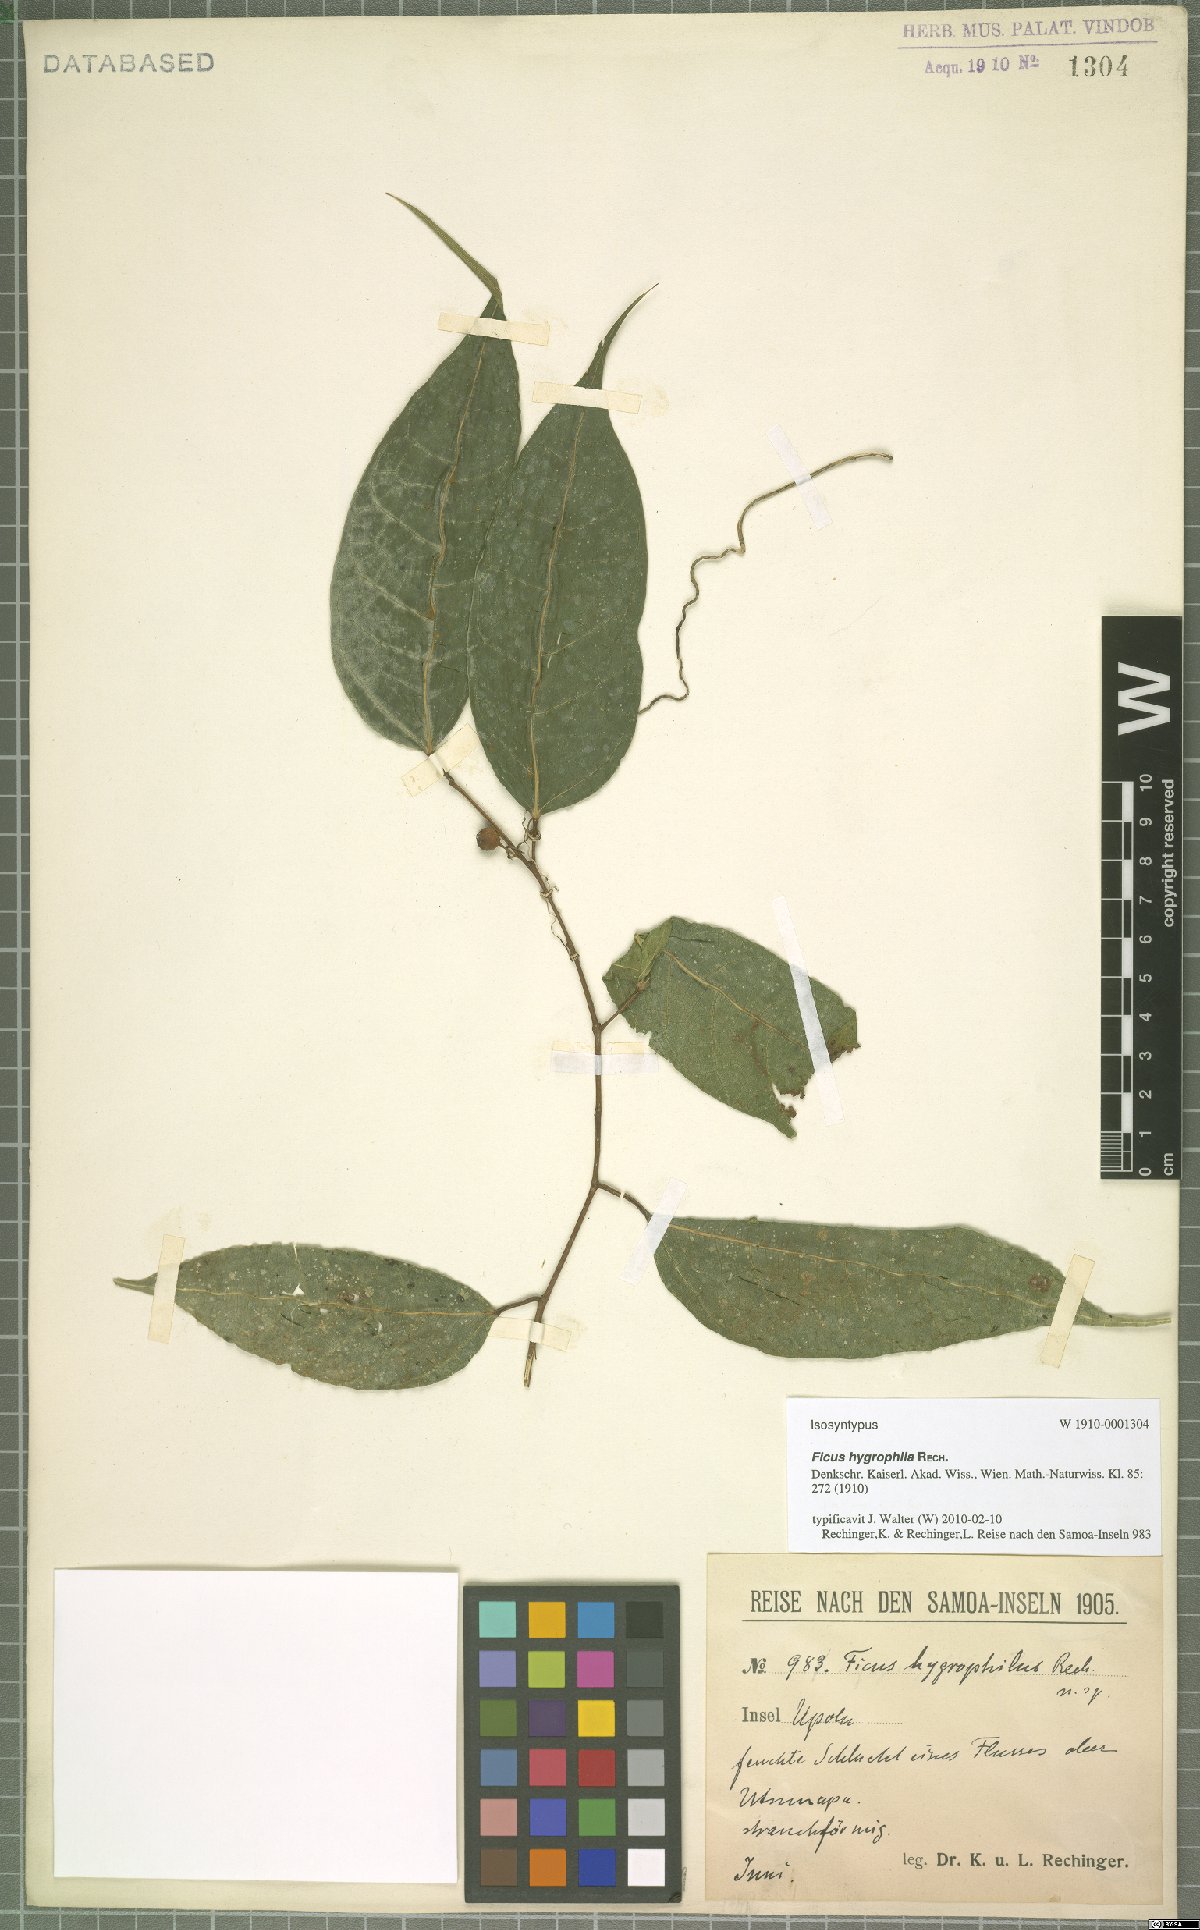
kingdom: Plantae
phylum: Tracheophyta
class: Magnoliopsida
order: Rosales
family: Moraceae
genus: Ficus
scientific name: Ficus godeffroyi
